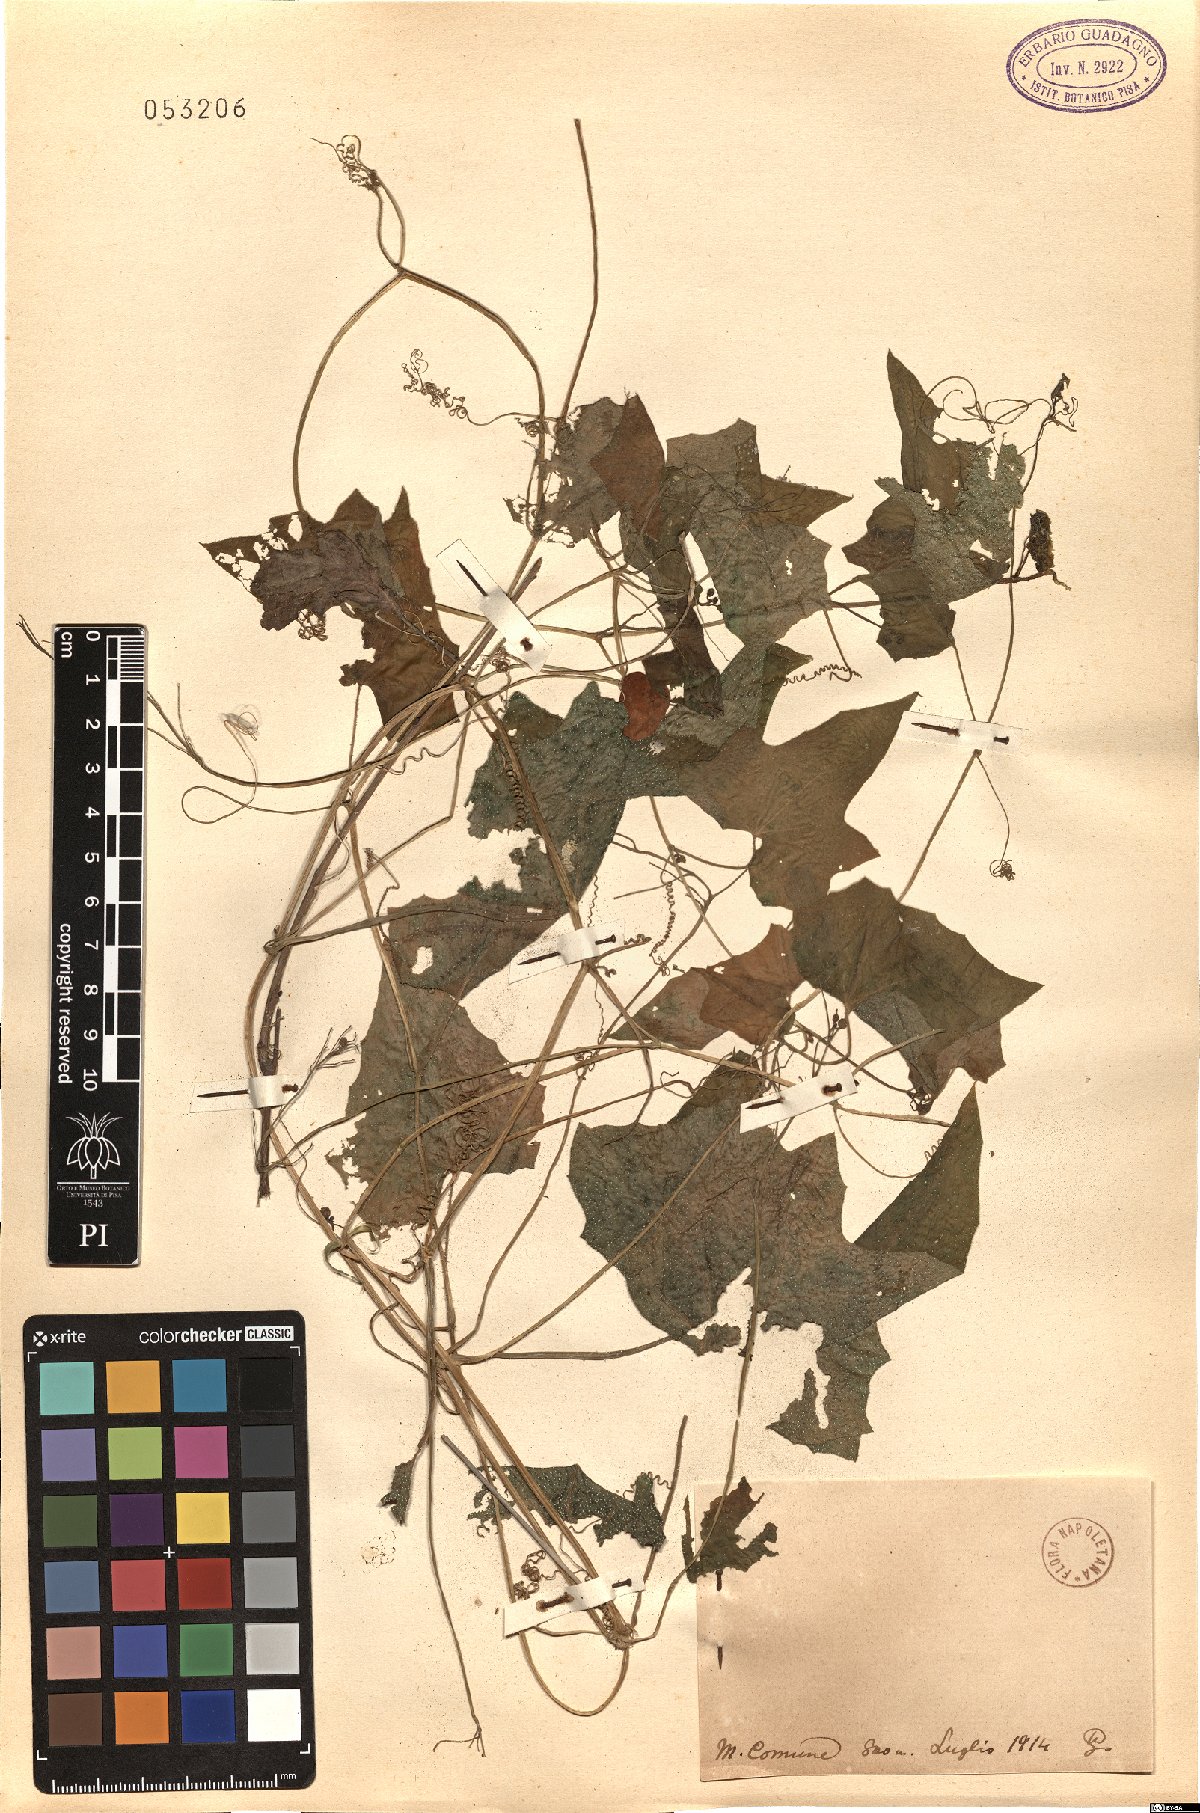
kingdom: Plantae
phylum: Tracheophyta
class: Magnoliopsida
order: Cucurbitales
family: Cucurbitaceae
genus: Bryonia
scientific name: Bryonia
